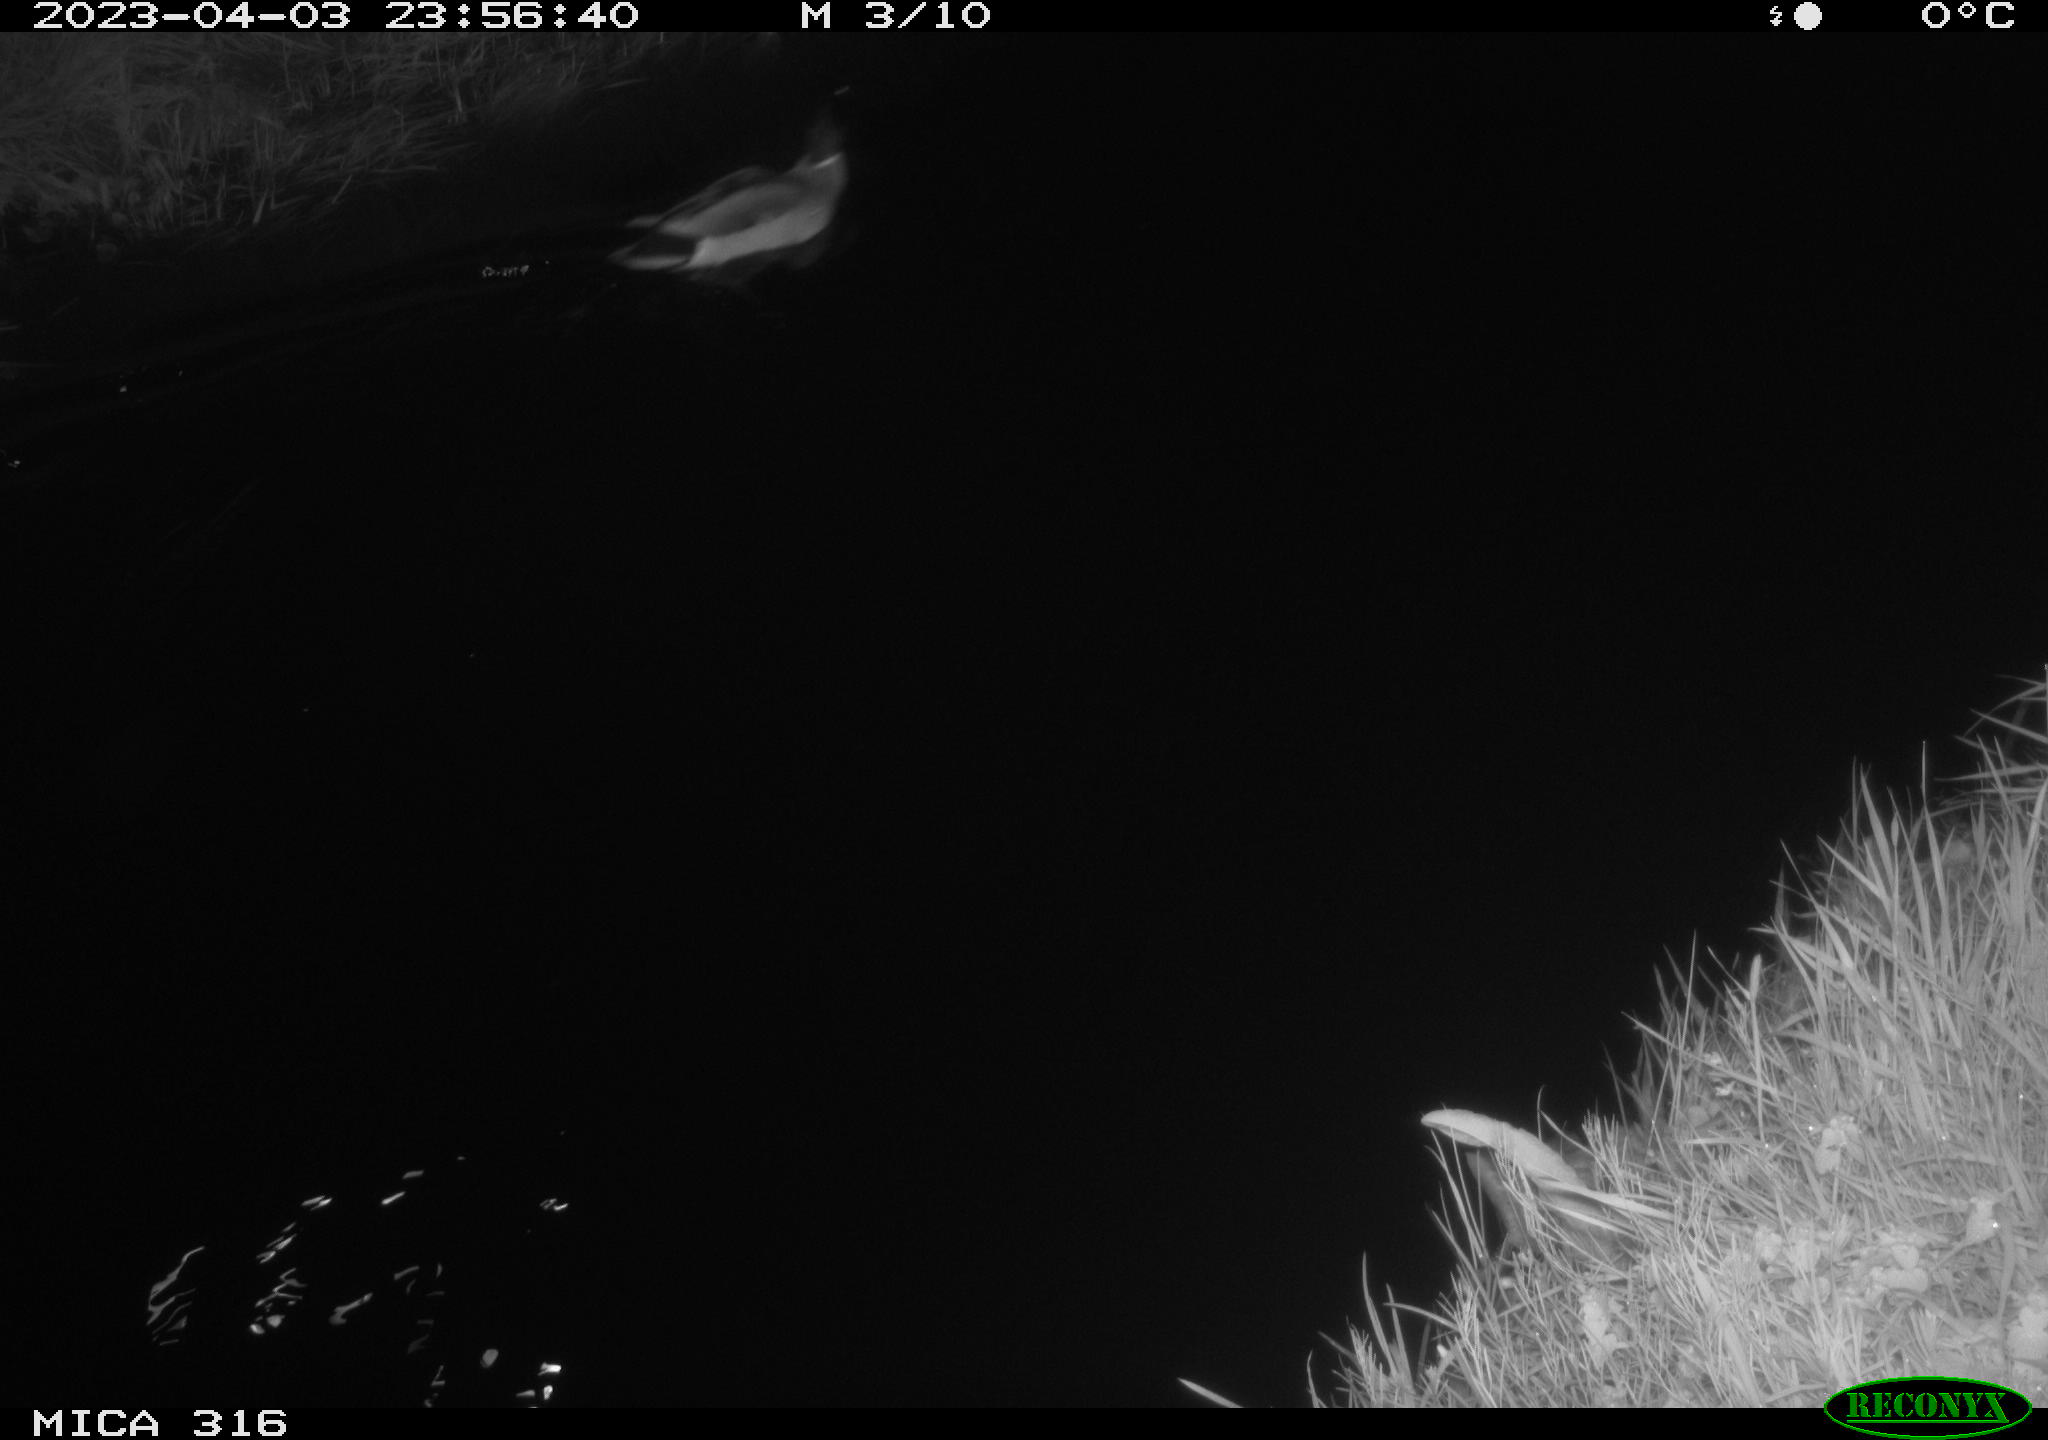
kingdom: Animalia
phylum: Chordata
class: Aves
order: Anseriformes
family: Anatidae
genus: Anas
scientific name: Anas
